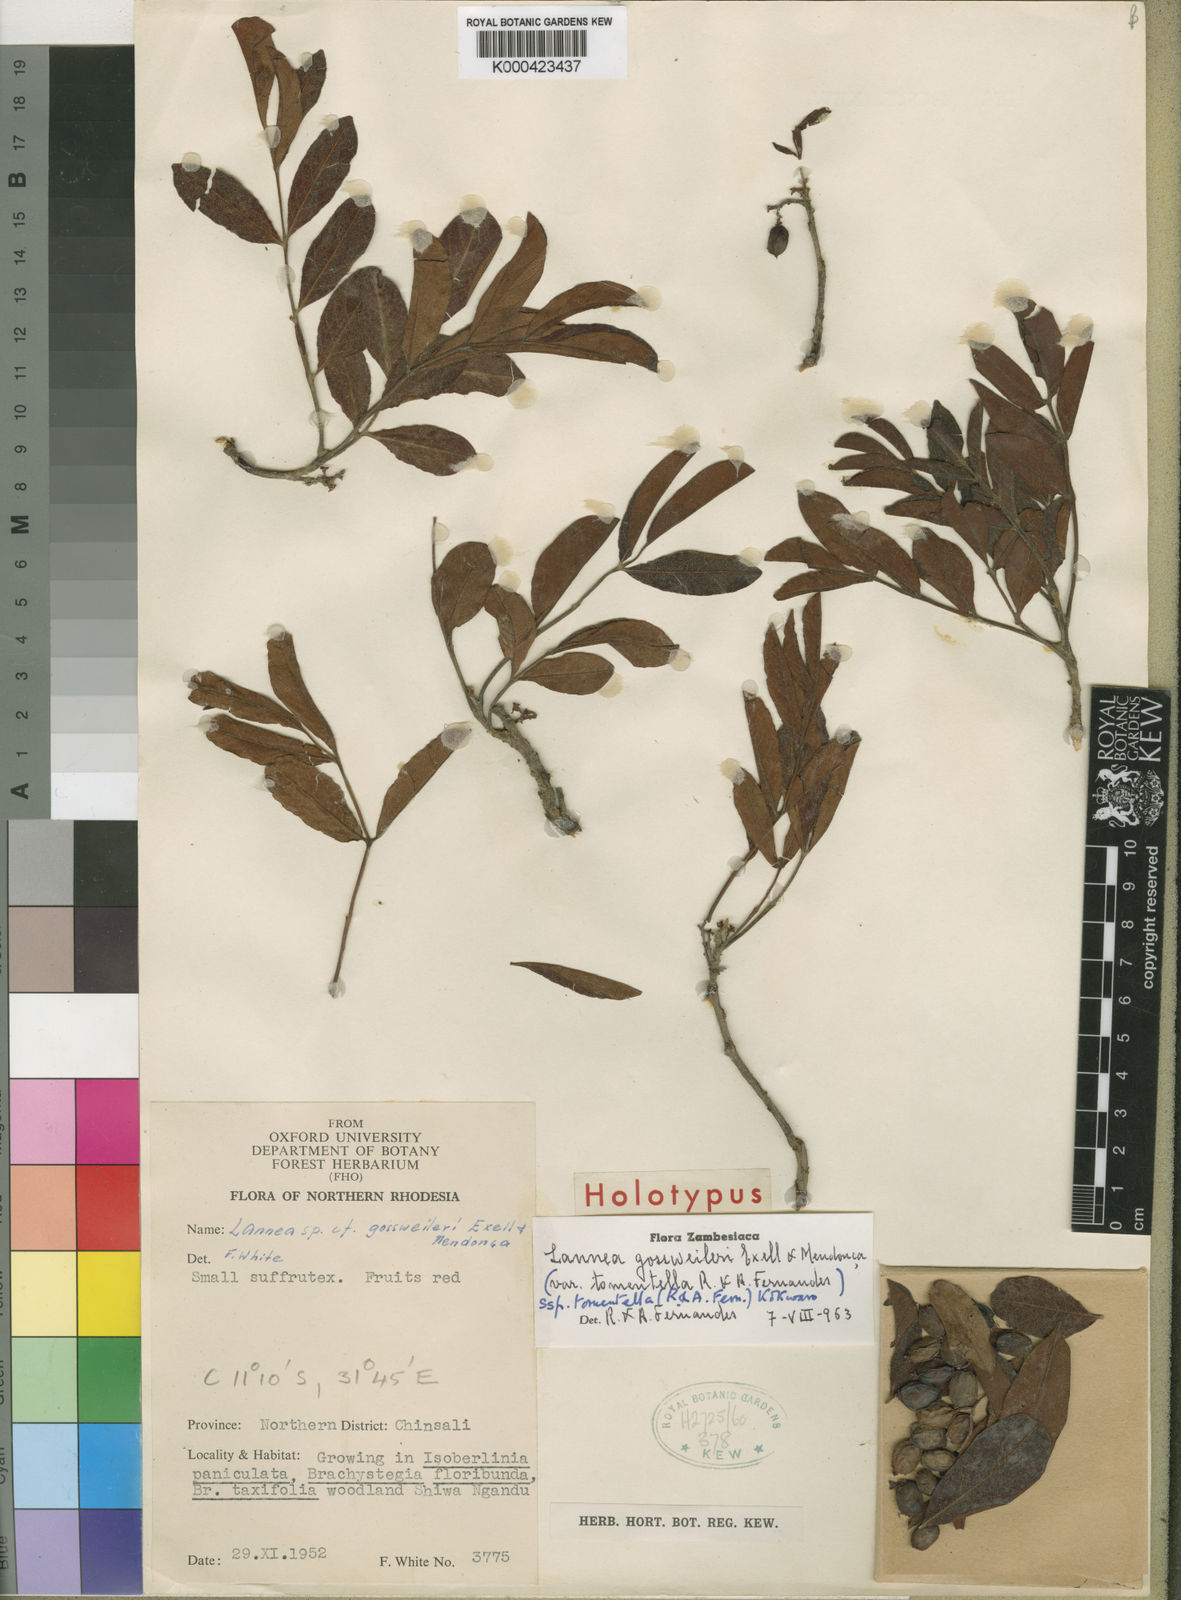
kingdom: Plantae
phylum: Tracheophyta
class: Magnoliopsida
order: Sapindales
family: Anacardiaceae
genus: Lannea
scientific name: Lannea
